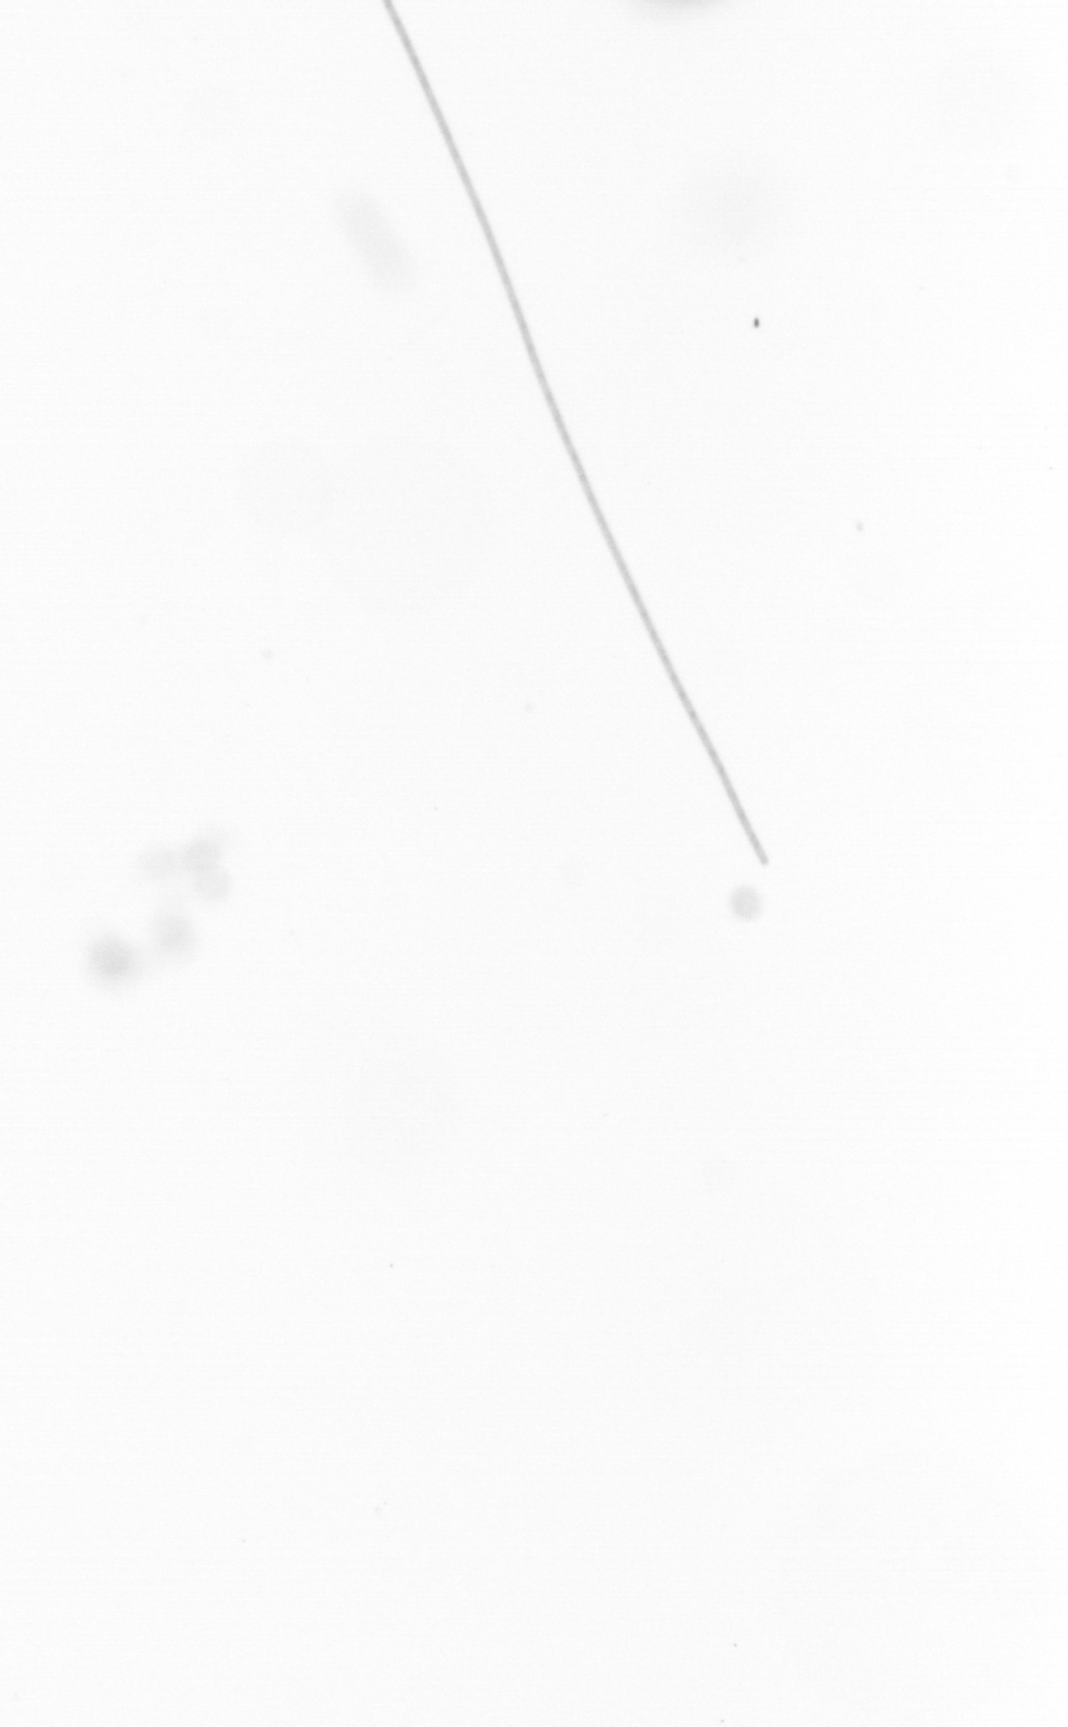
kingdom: Chromista
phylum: Ochrophyta
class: Bacillariophyceae
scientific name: Bacillariophyceae
